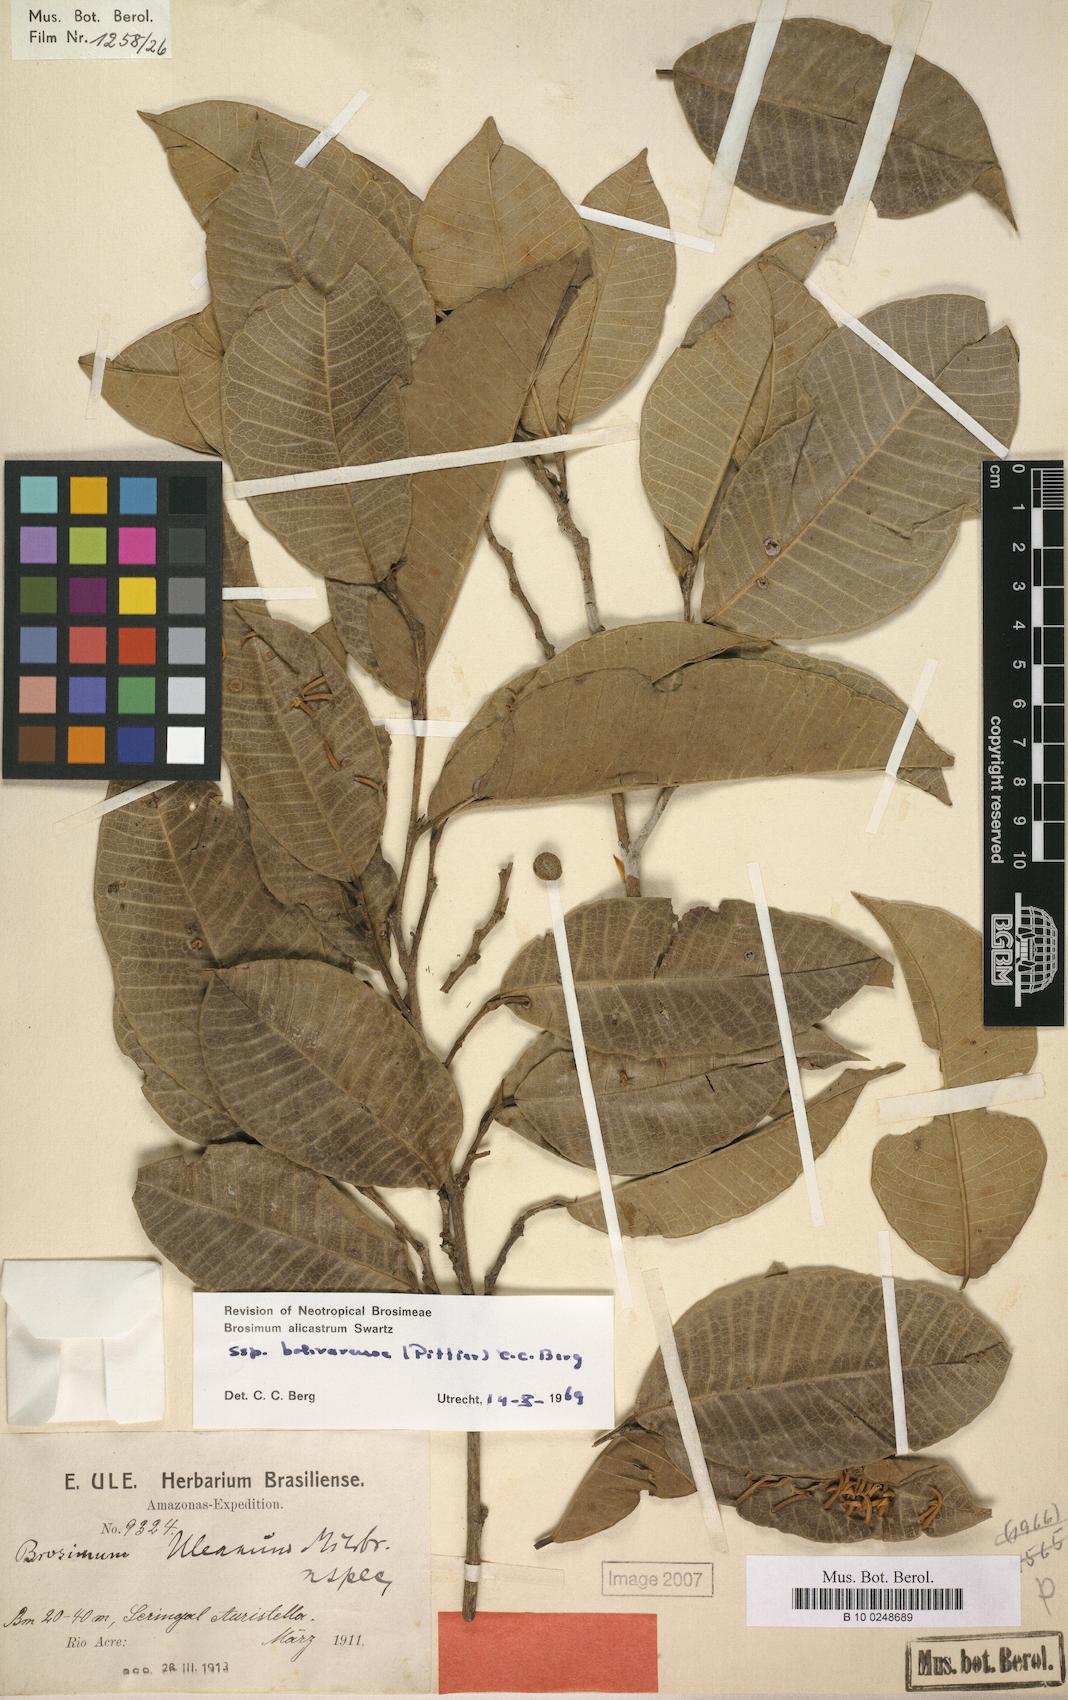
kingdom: Plantae
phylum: Tracheophyta
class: Magnoliopsida
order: Rosales
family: Moraceae
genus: Brosimum
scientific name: Brosimum alicastrum
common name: Breadnut
